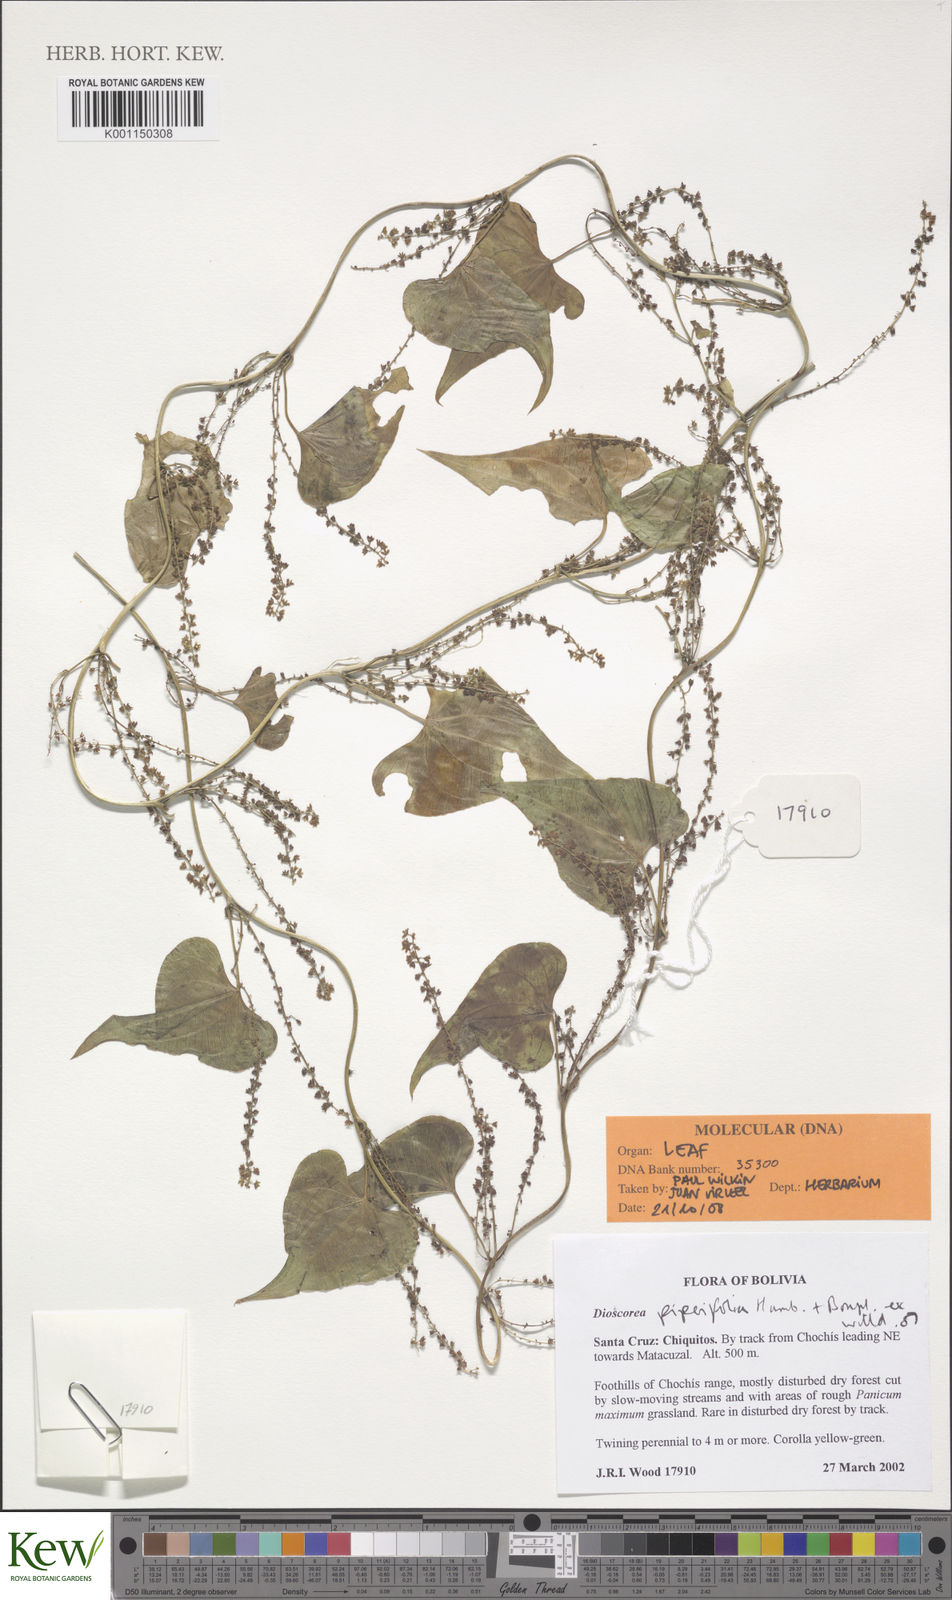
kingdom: Plantae
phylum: Tracheophyta
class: Liliopsida
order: Dioscoreales
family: Dioscoreaceae
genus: Dioscorea
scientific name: Dioscorea piperifolia
